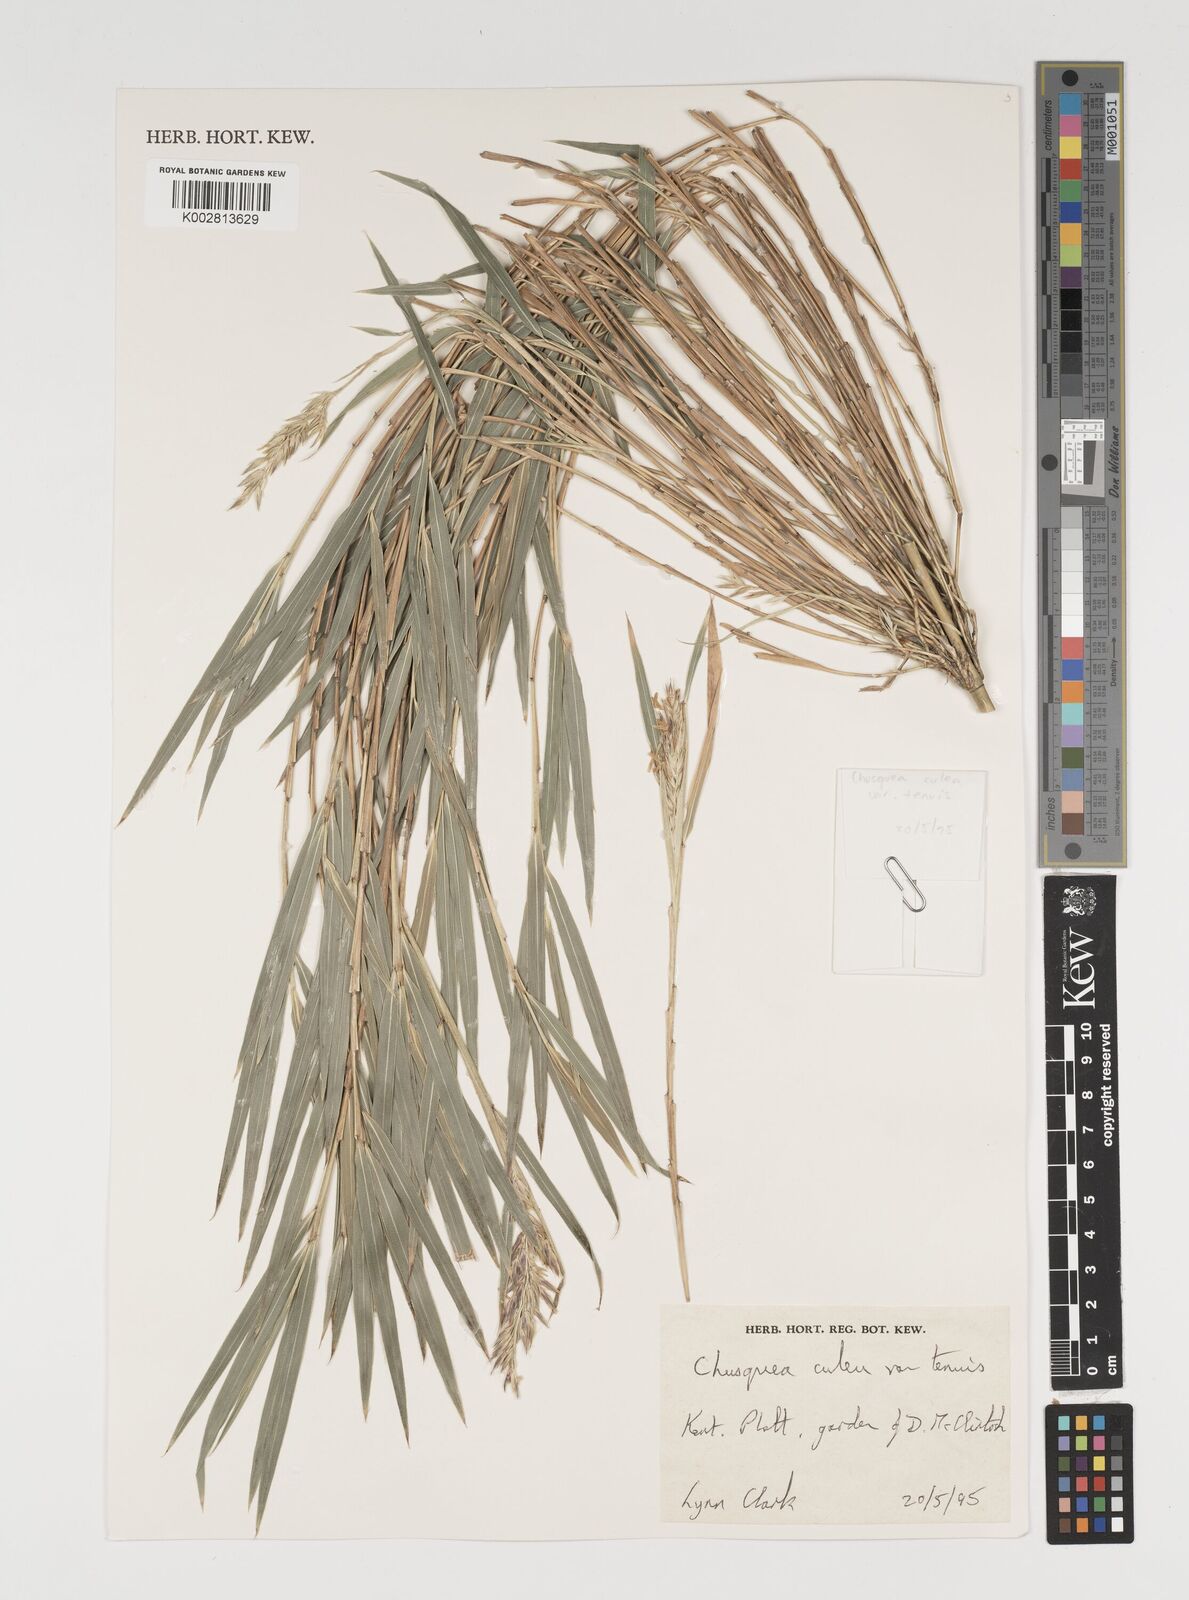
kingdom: Plantae
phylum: Tracheophyta
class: Liliopsida
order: Poales
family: Poaceae
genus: Chusquea
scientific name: Chusquea culeou
